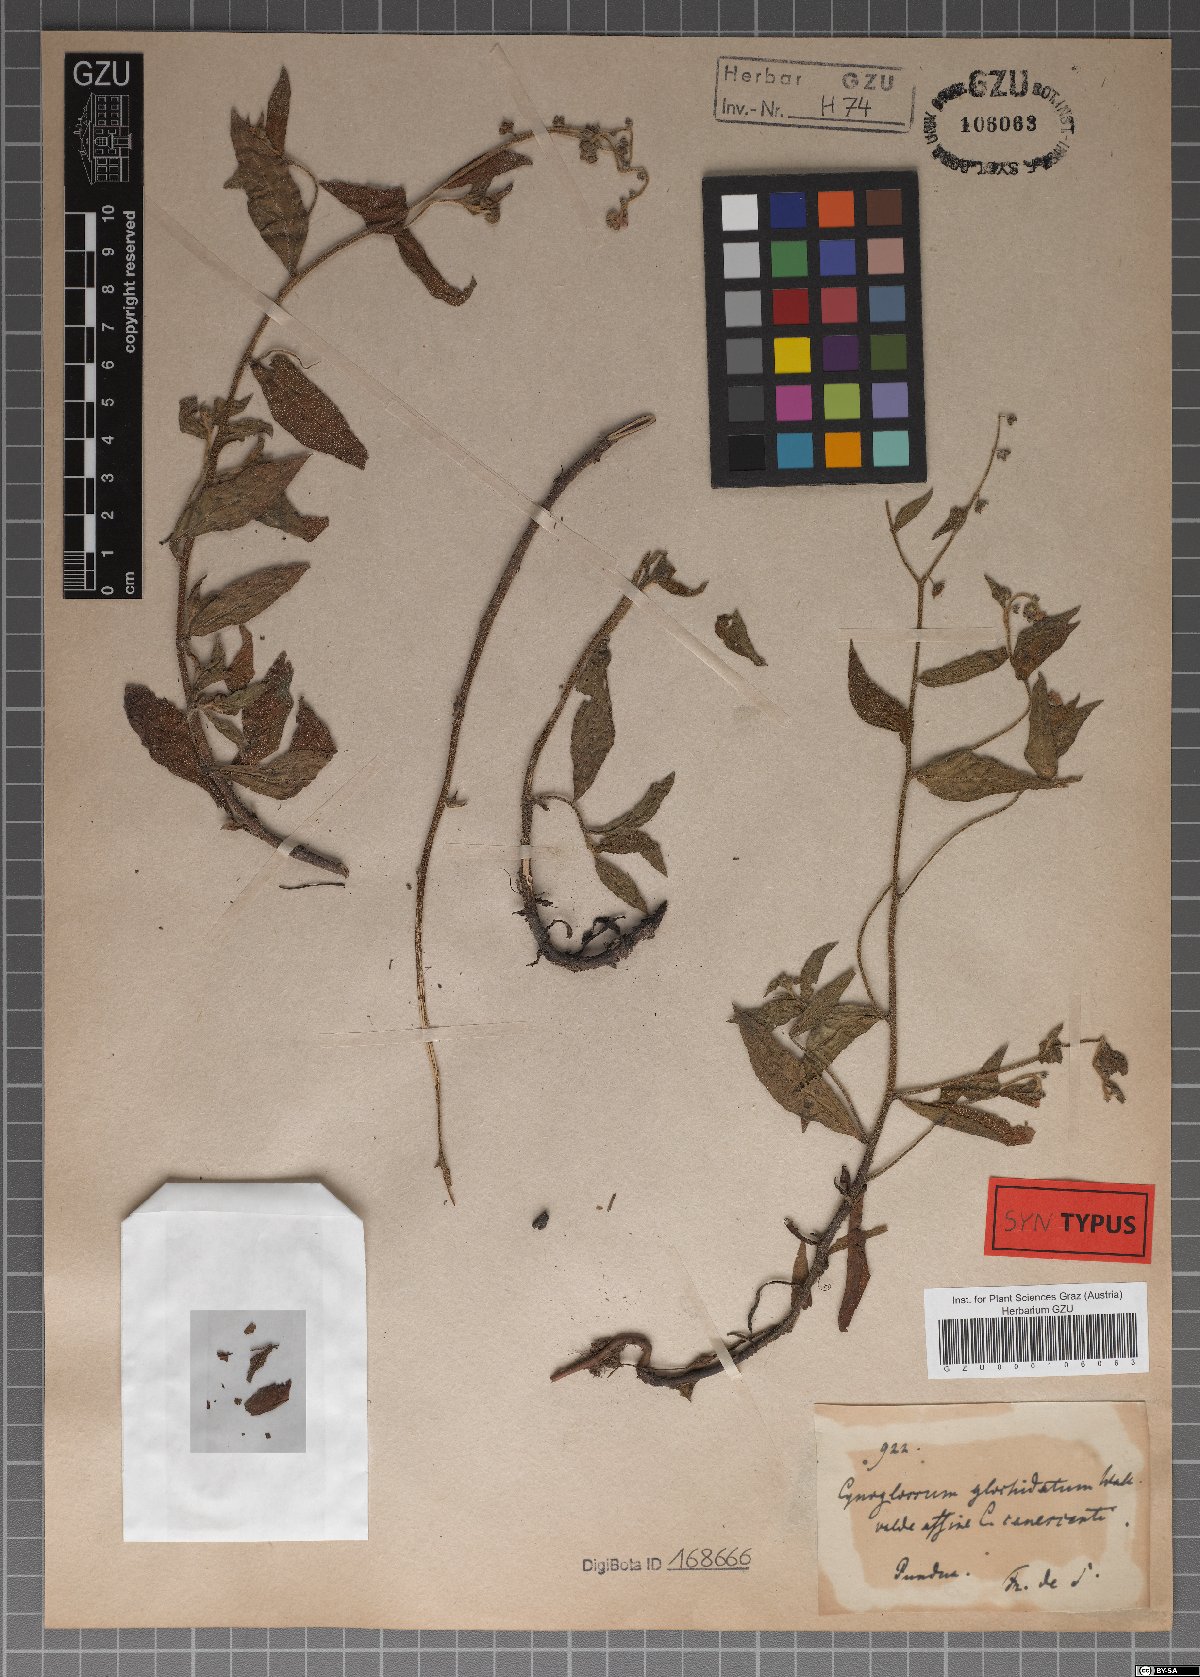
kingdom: Plantae
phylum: Tracheophyta
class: Magnoliopsida
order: Boraginales
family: Boraginaceae
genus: Paracynoglossum
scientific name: Paracynoglossum glochidiatum
